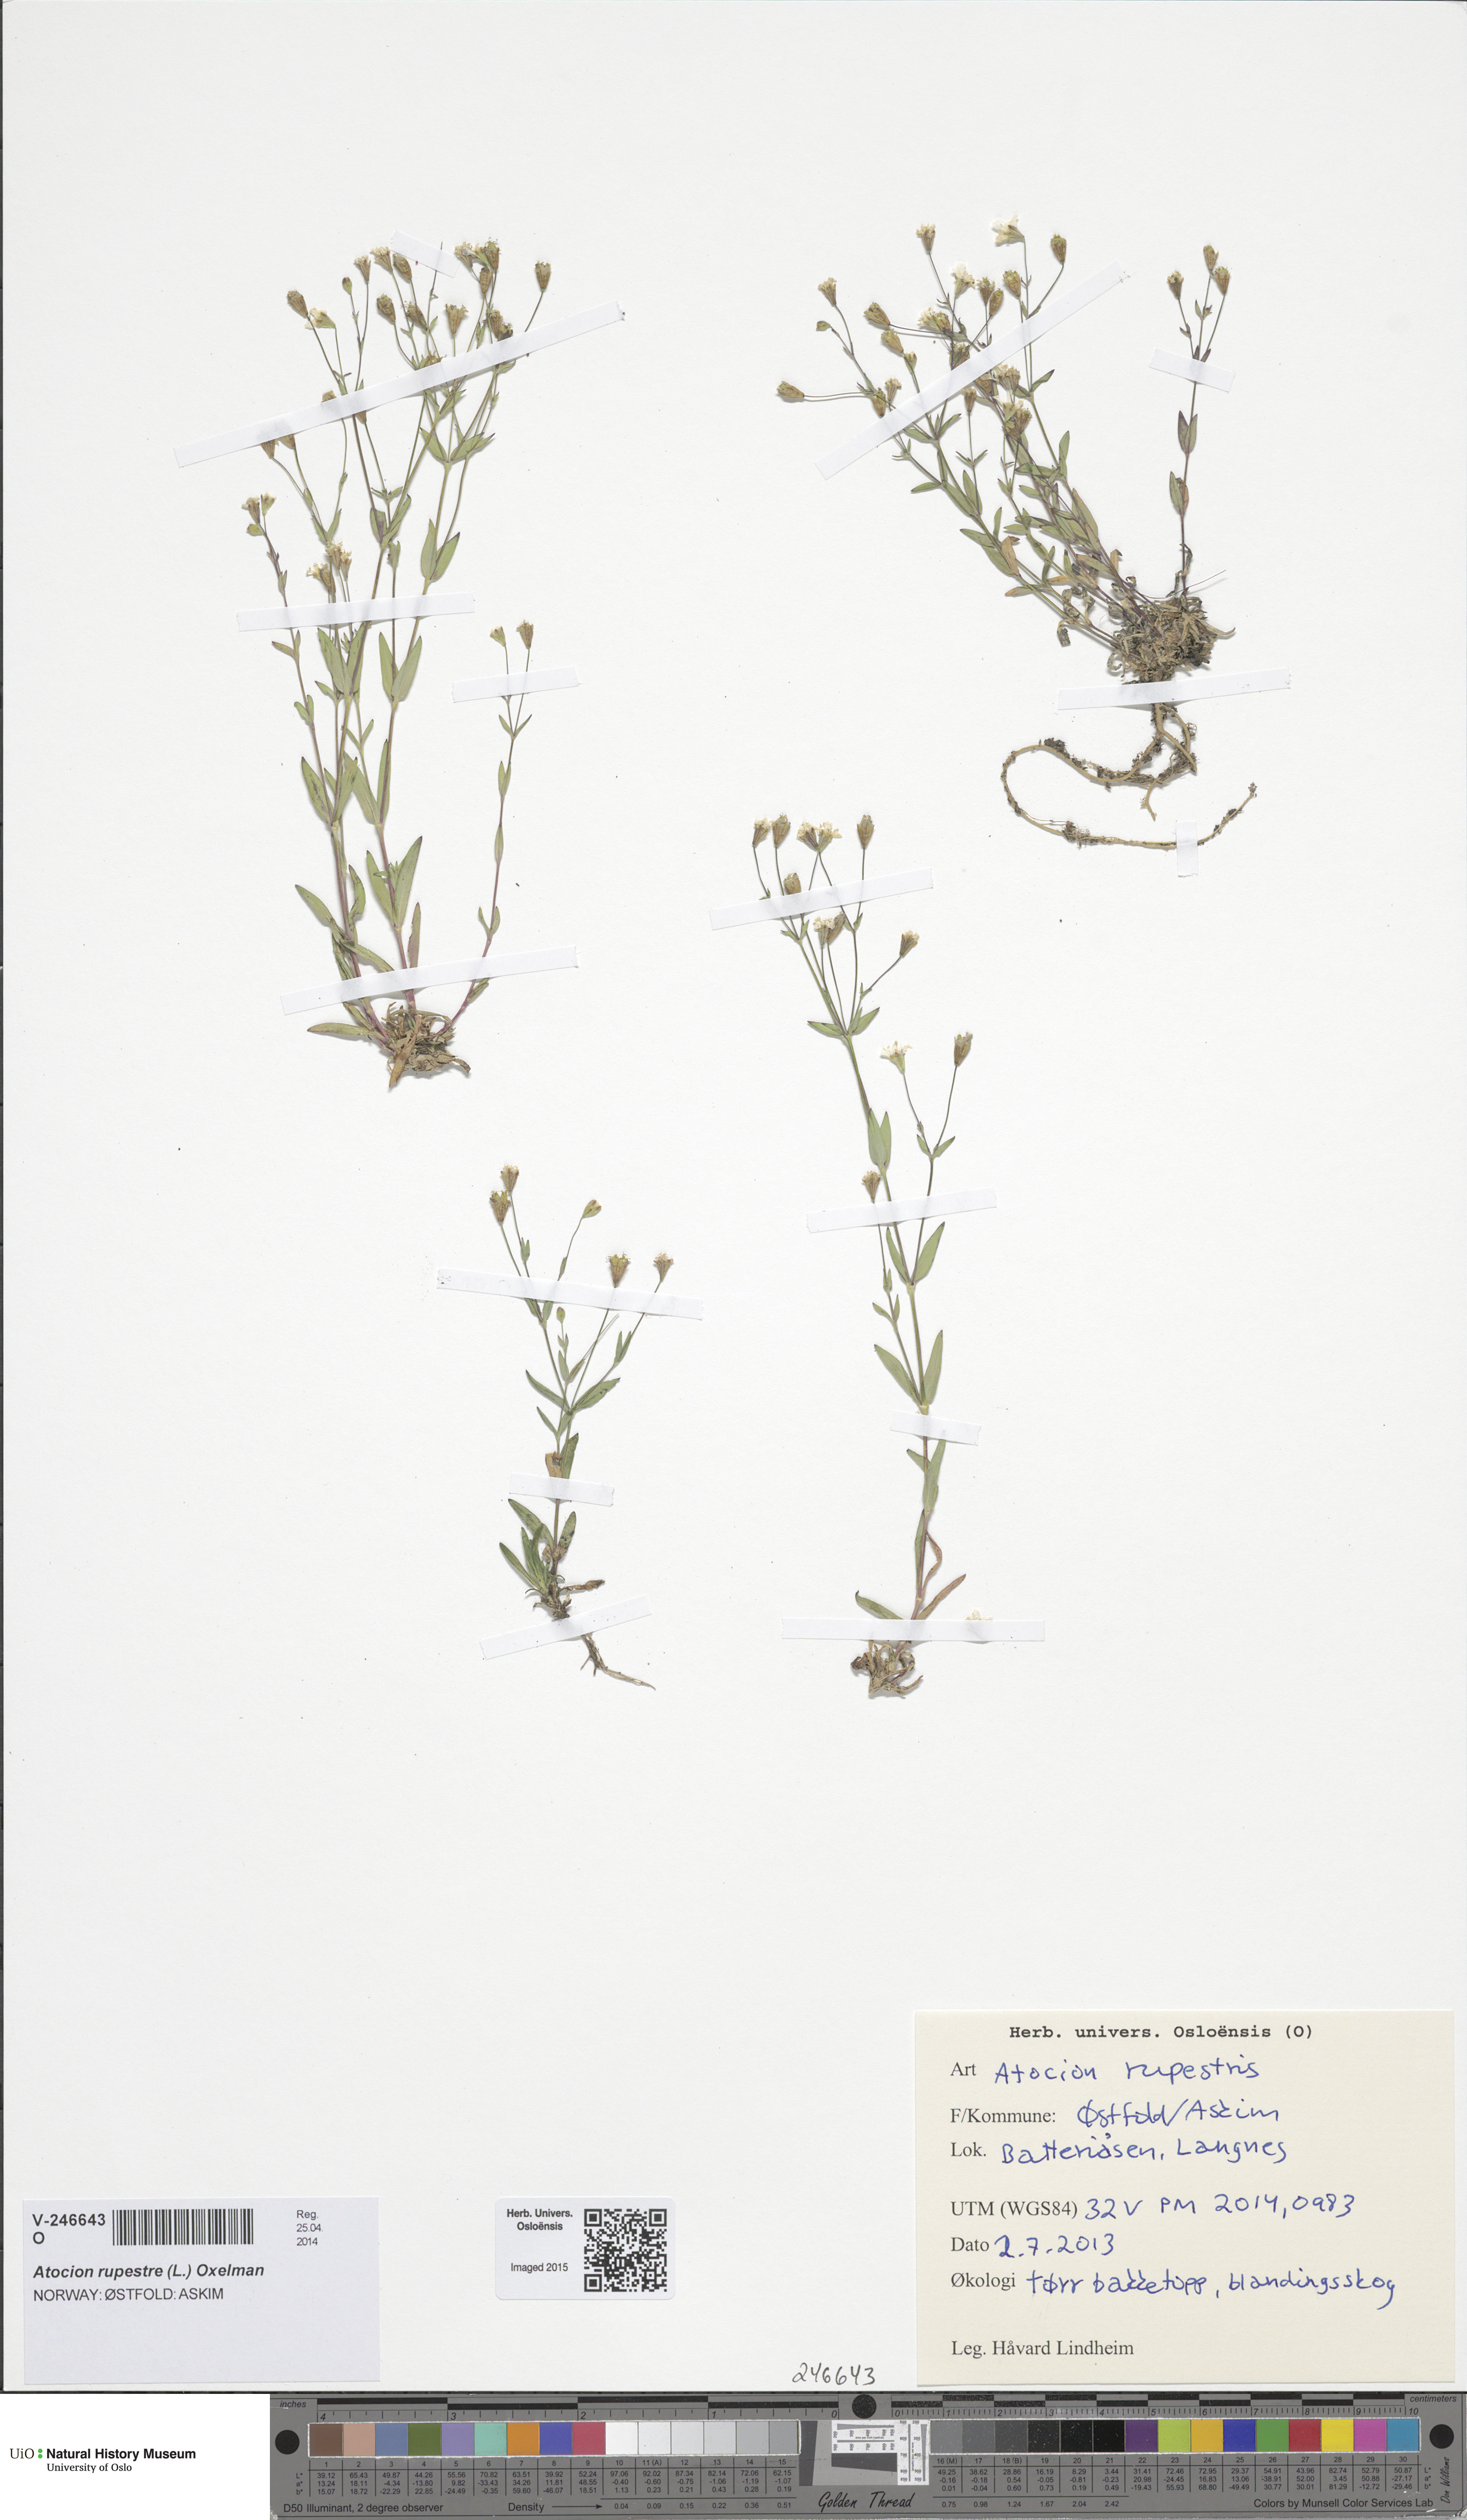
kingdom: Plantae
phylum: Tracheophyta
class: Magnoliopsida
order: Caryophyllales
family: Caryophyllaceae
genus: Atocion
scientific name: Atocion rupestre
